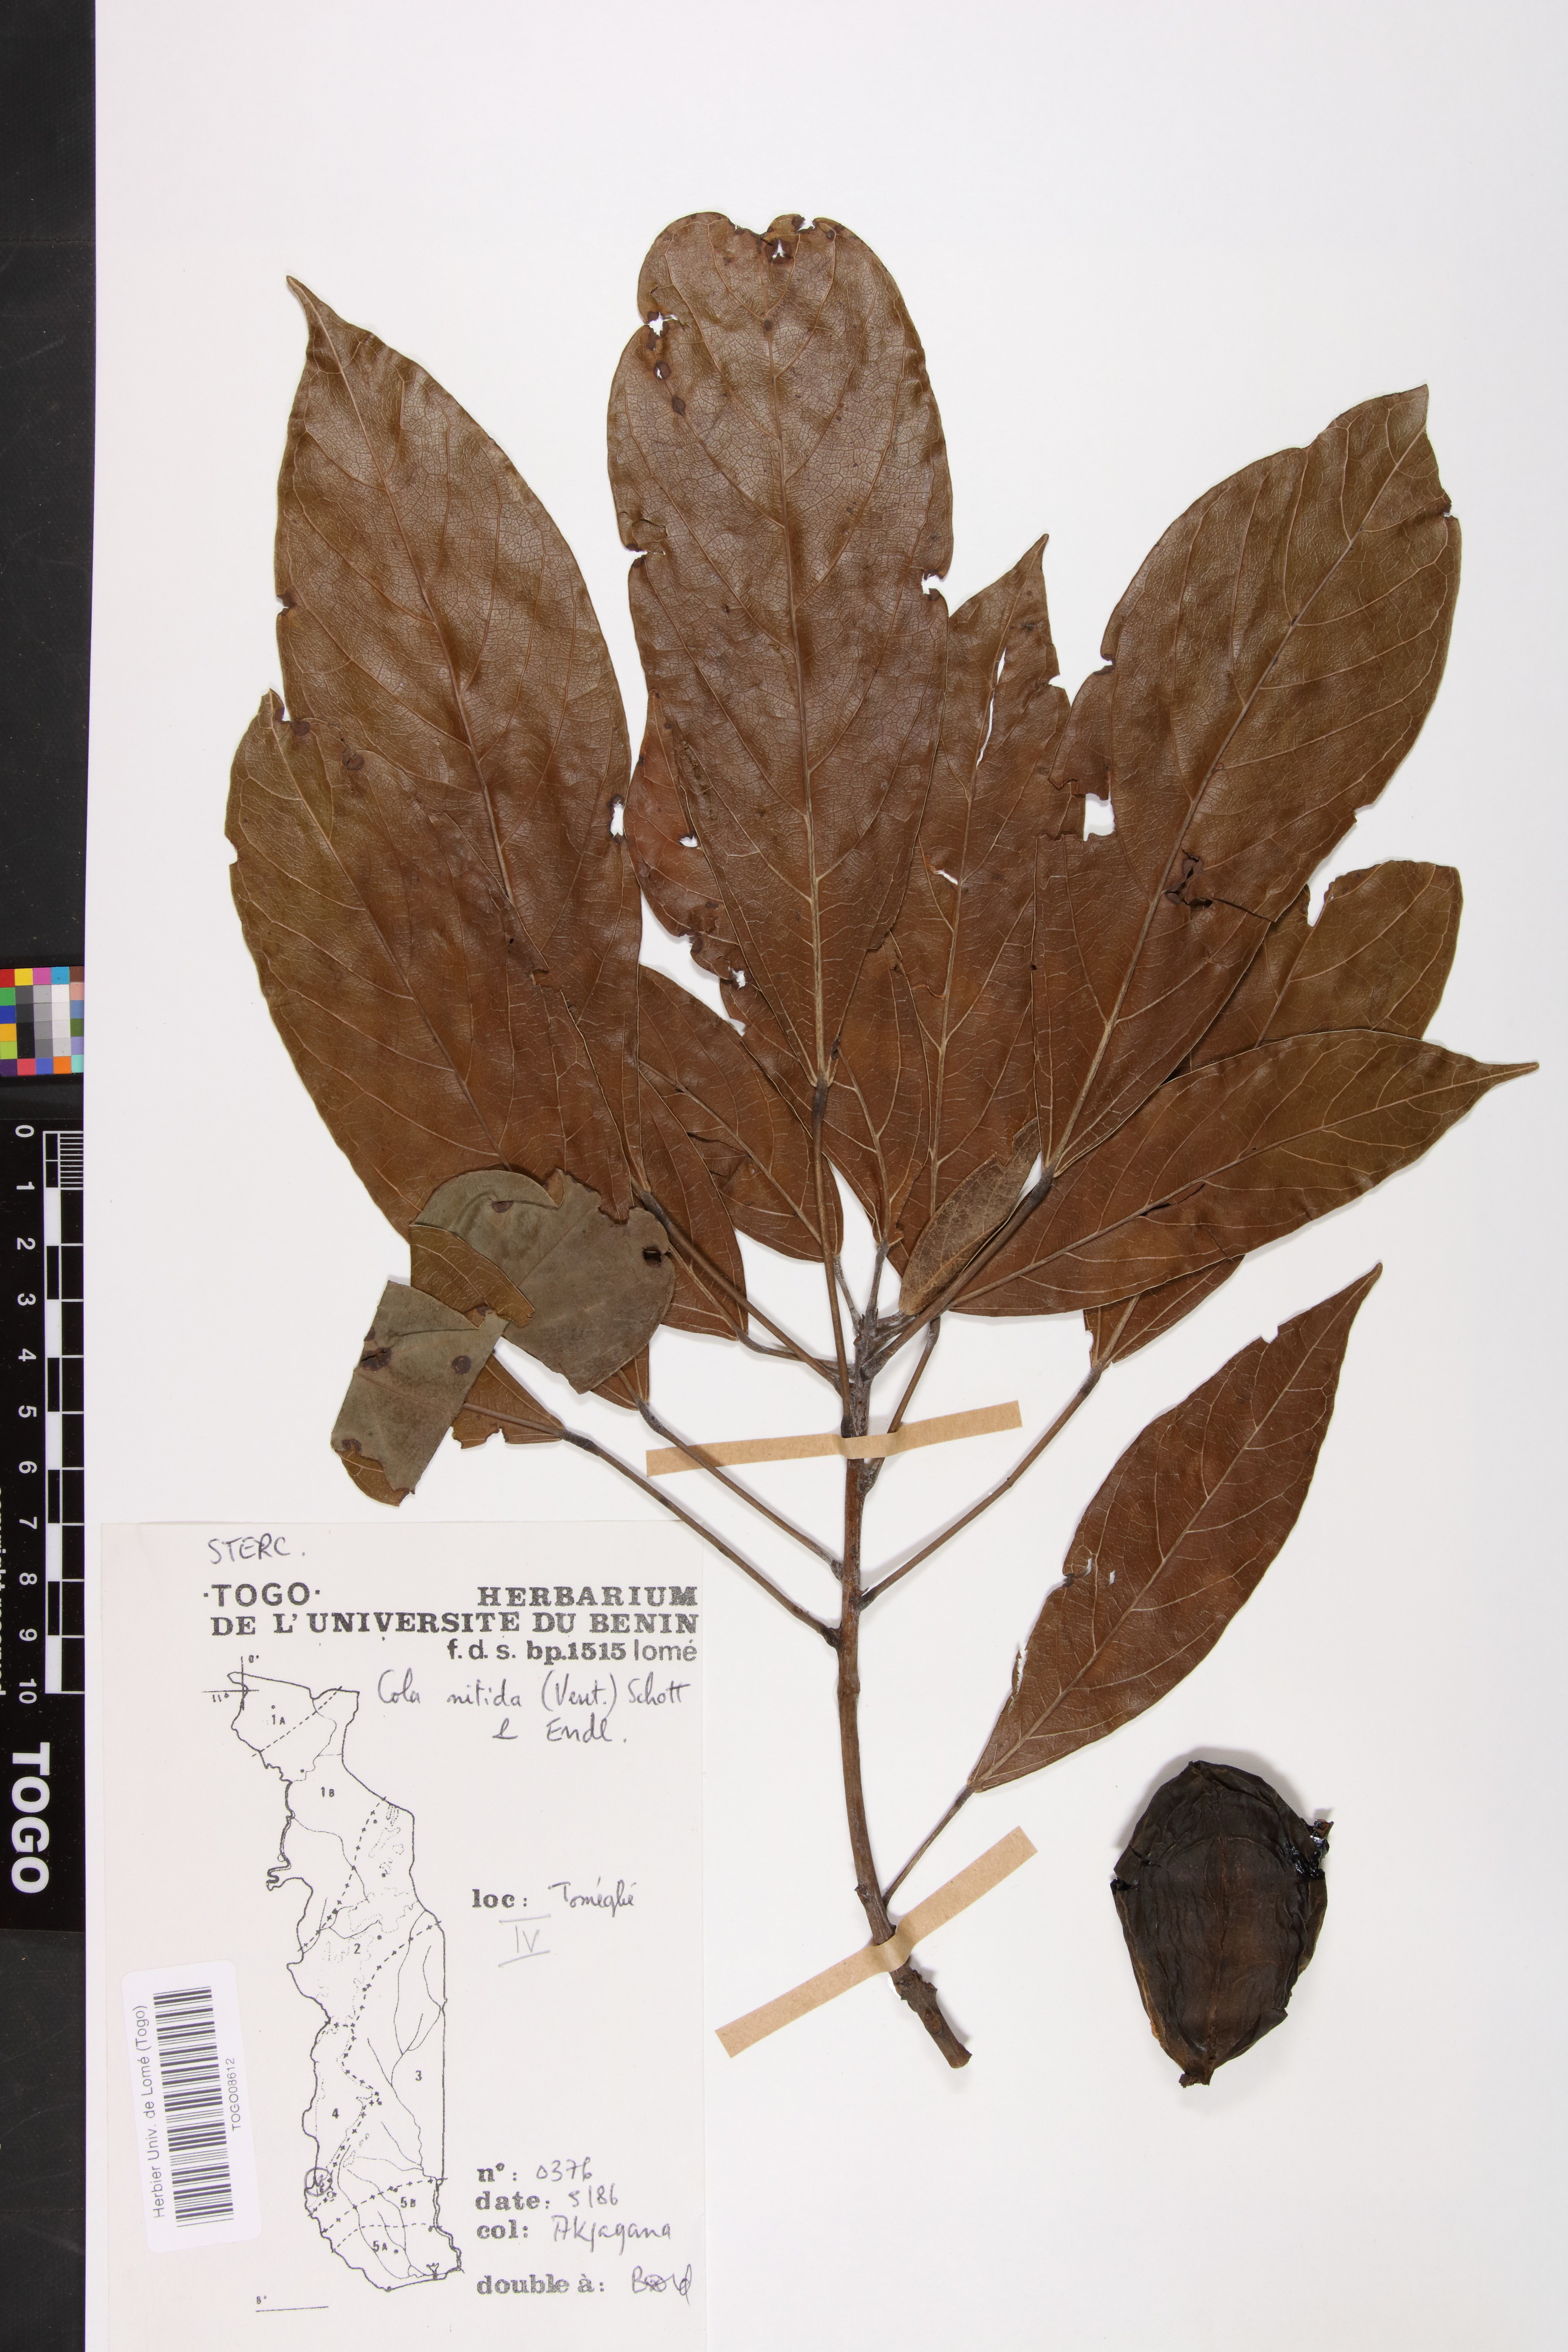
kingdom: Plantae
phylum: Tracheophyta
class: Magnoliopsida
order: Malvales
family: Malvaceae
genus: Cola
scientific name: Cola nitida
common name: Kola nut
